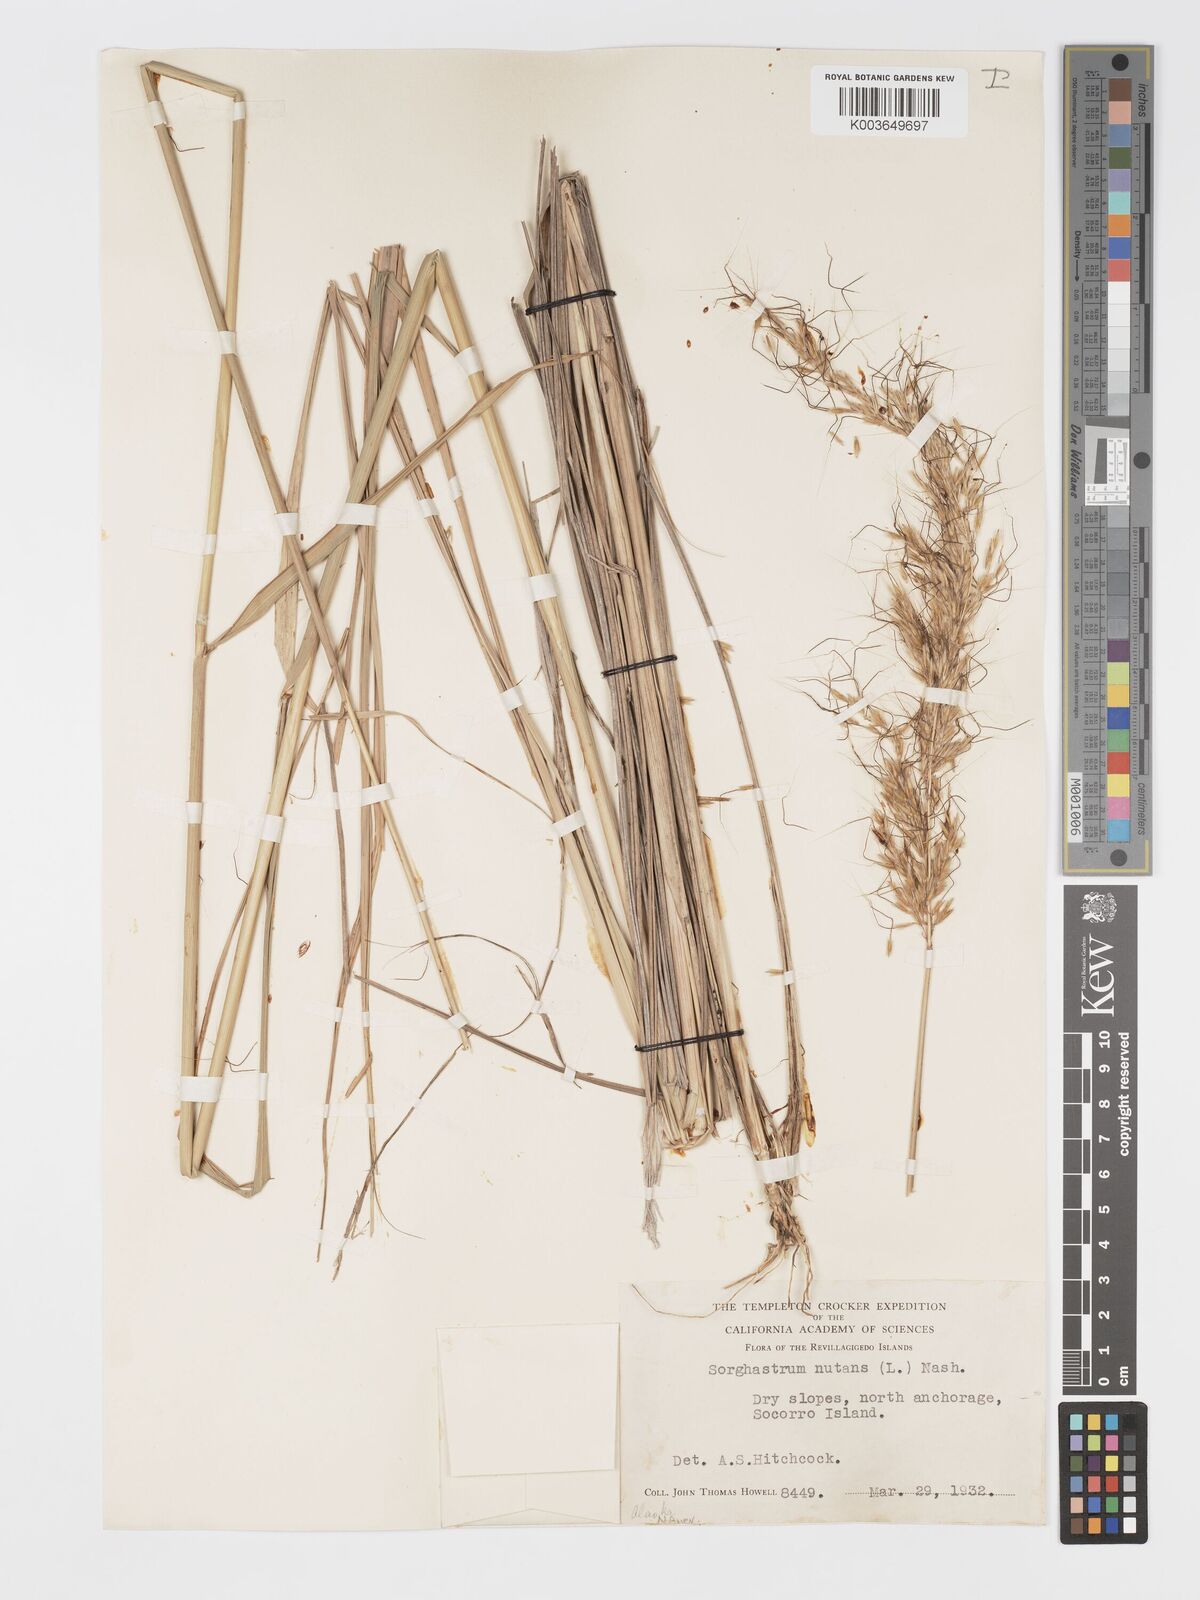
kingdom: Plantae
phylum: Tracheophyta
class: Liliopsida
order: Poales
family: Poaceae
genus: Sorghastrum
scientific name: Sorghastrum nutans
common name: Indian grass
